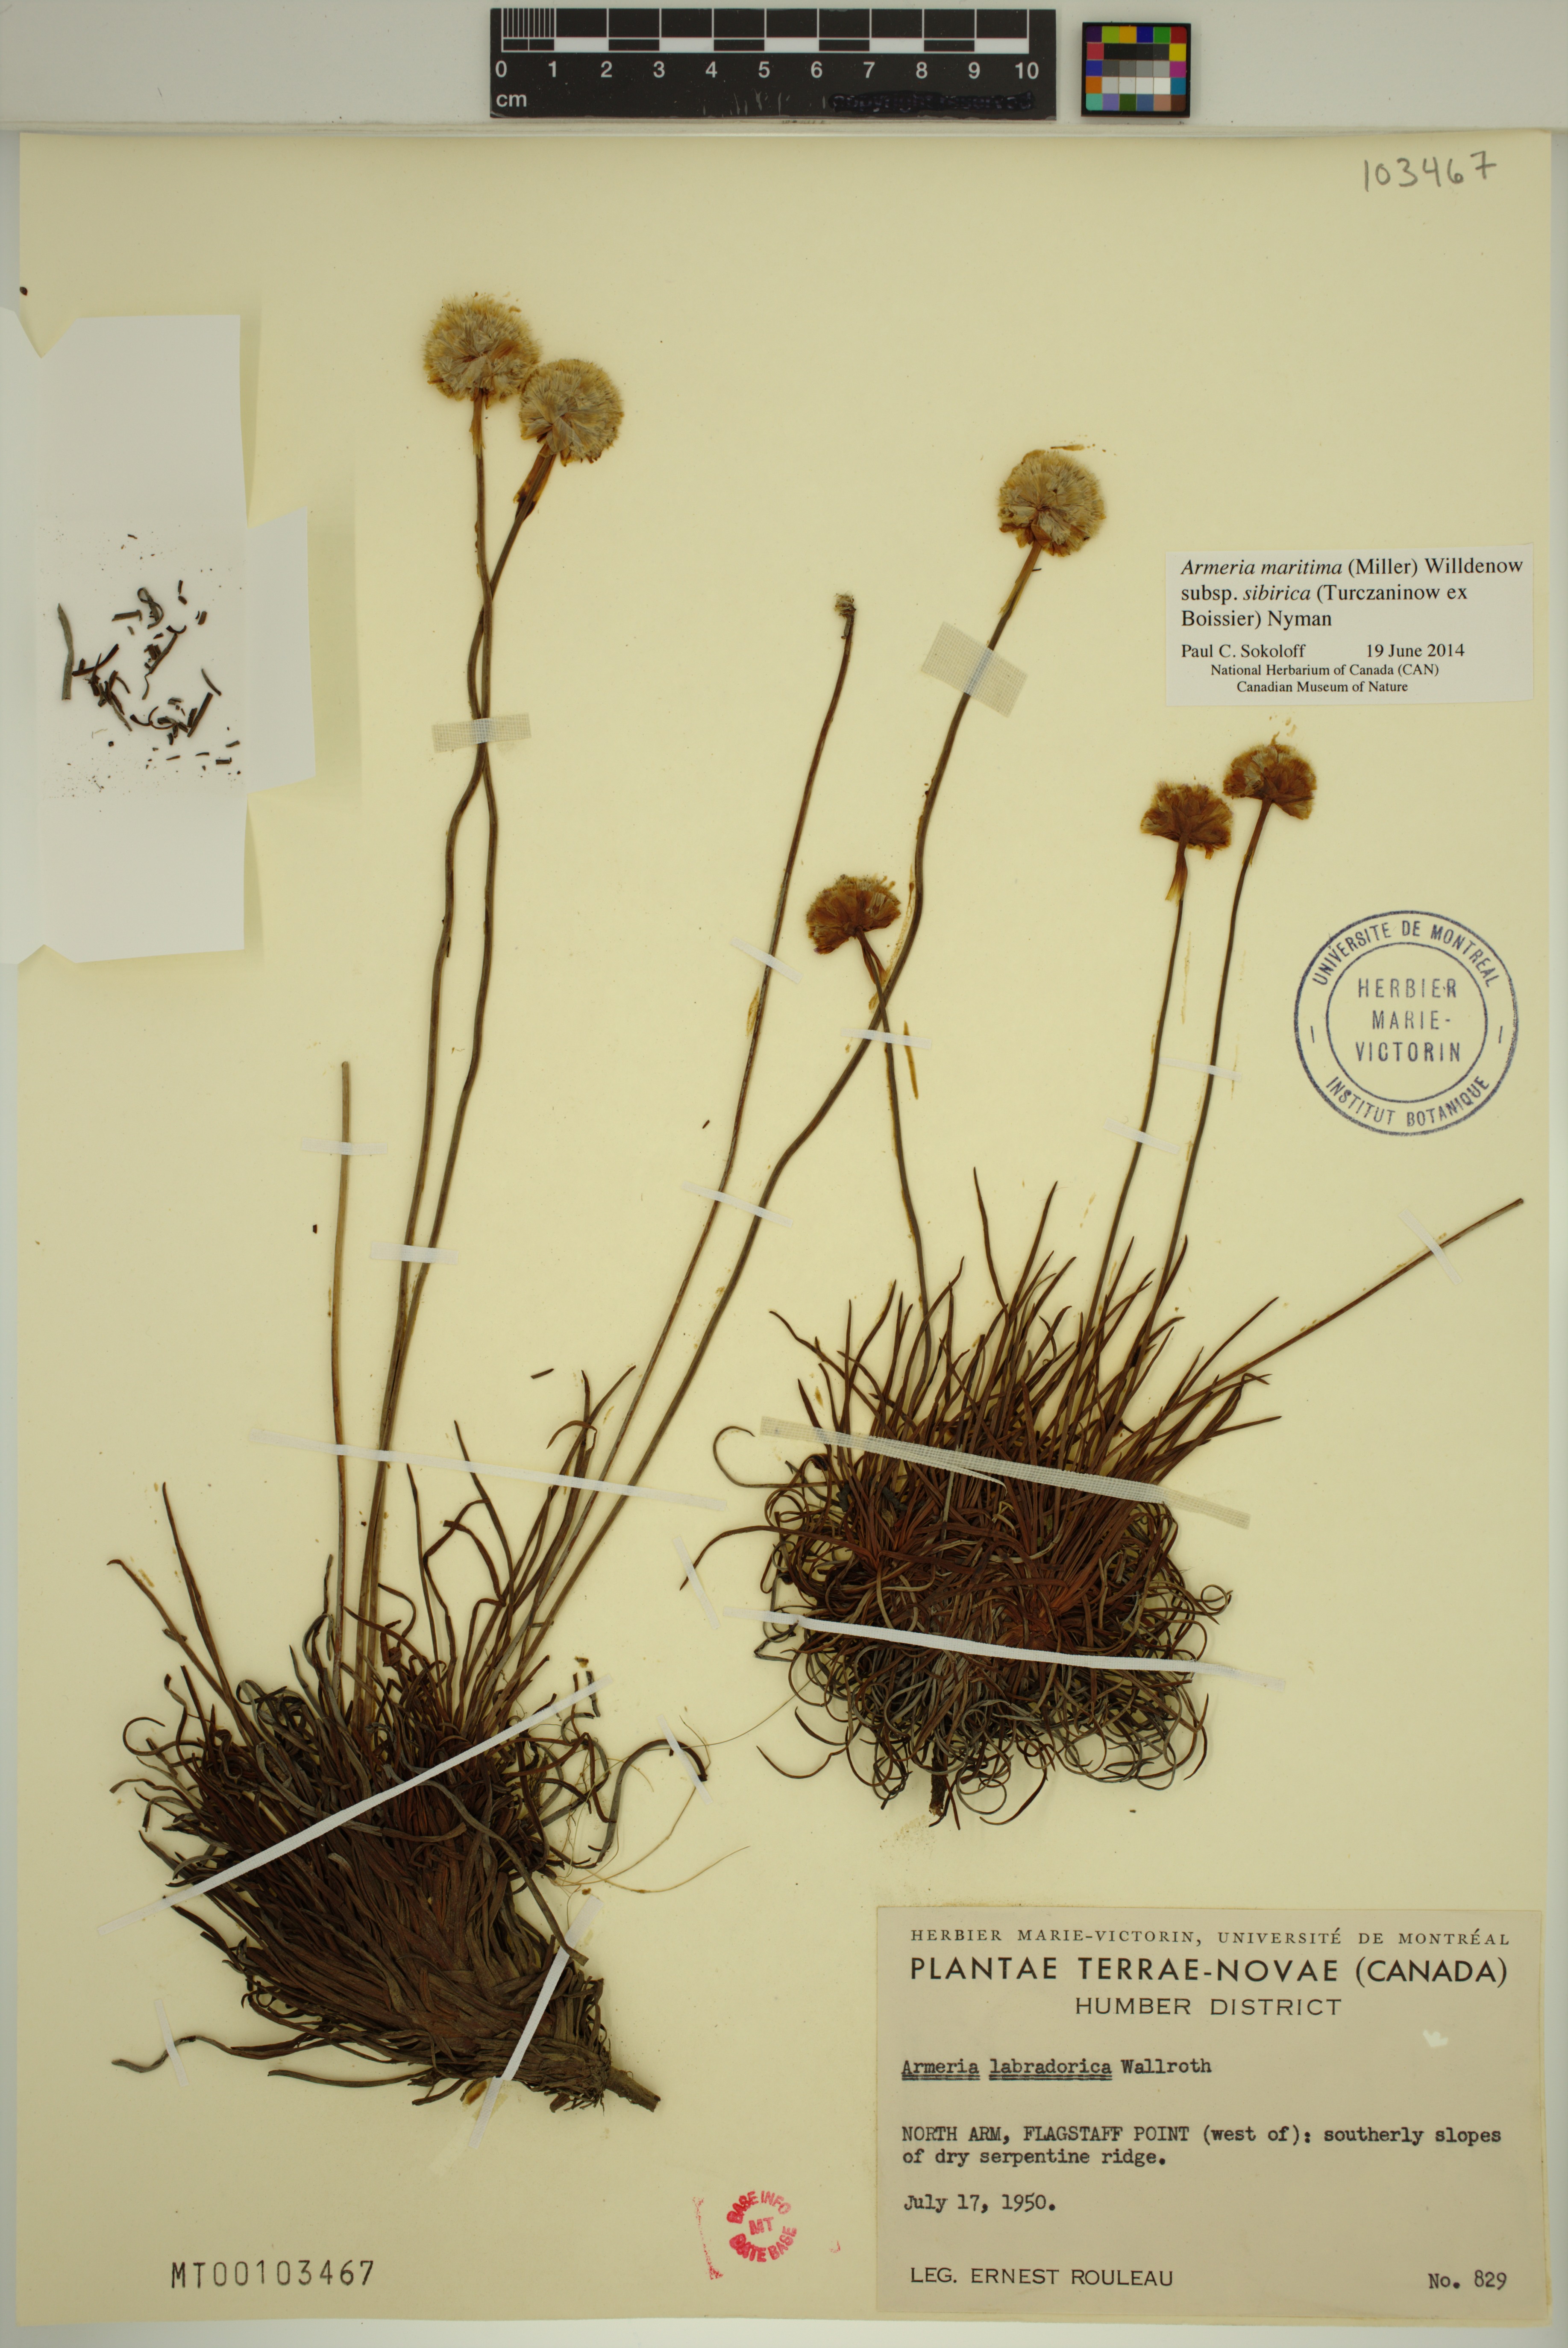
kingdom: Plantae
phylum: Tracheophyta
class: Magnoliopsida
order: Caryophyllales
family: Plumbaginaceae
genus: Armeria
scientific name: Armeria maritima
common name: Thrift
